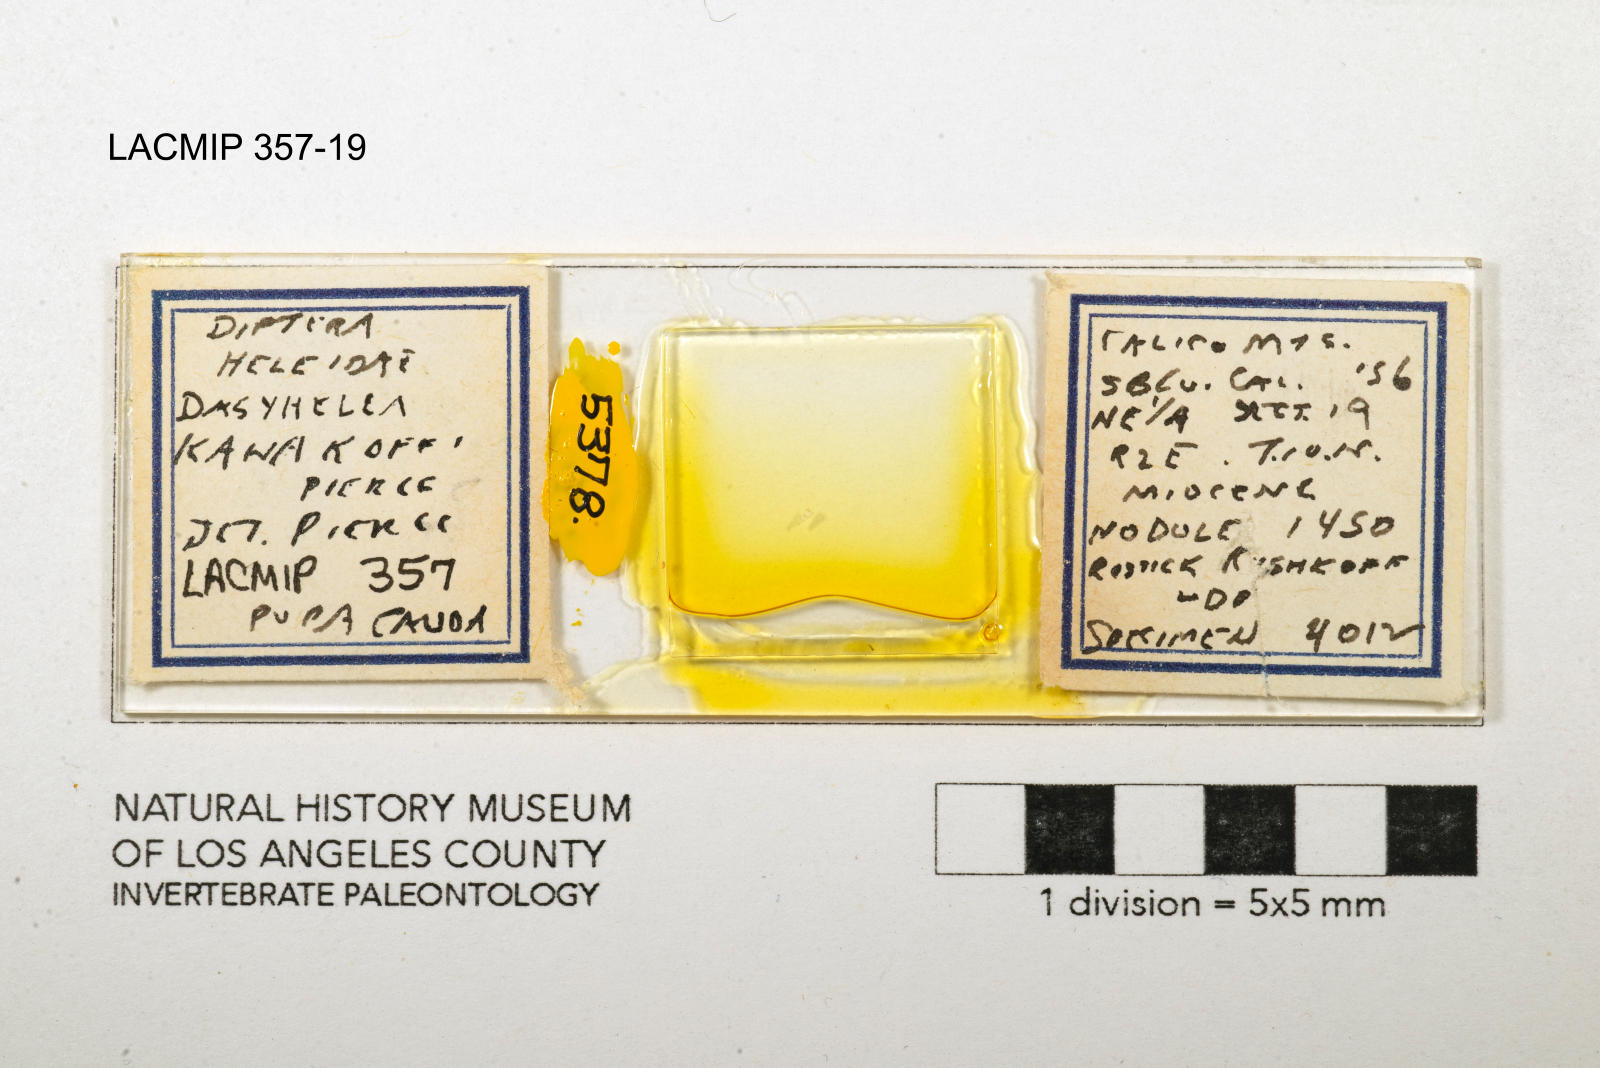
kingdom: Animalia
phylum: Arthropoda
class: Insecta
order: Diptera
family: Ceratopogonidae
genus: Dasyhelea
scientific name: Dasyhelea kanakoffi
